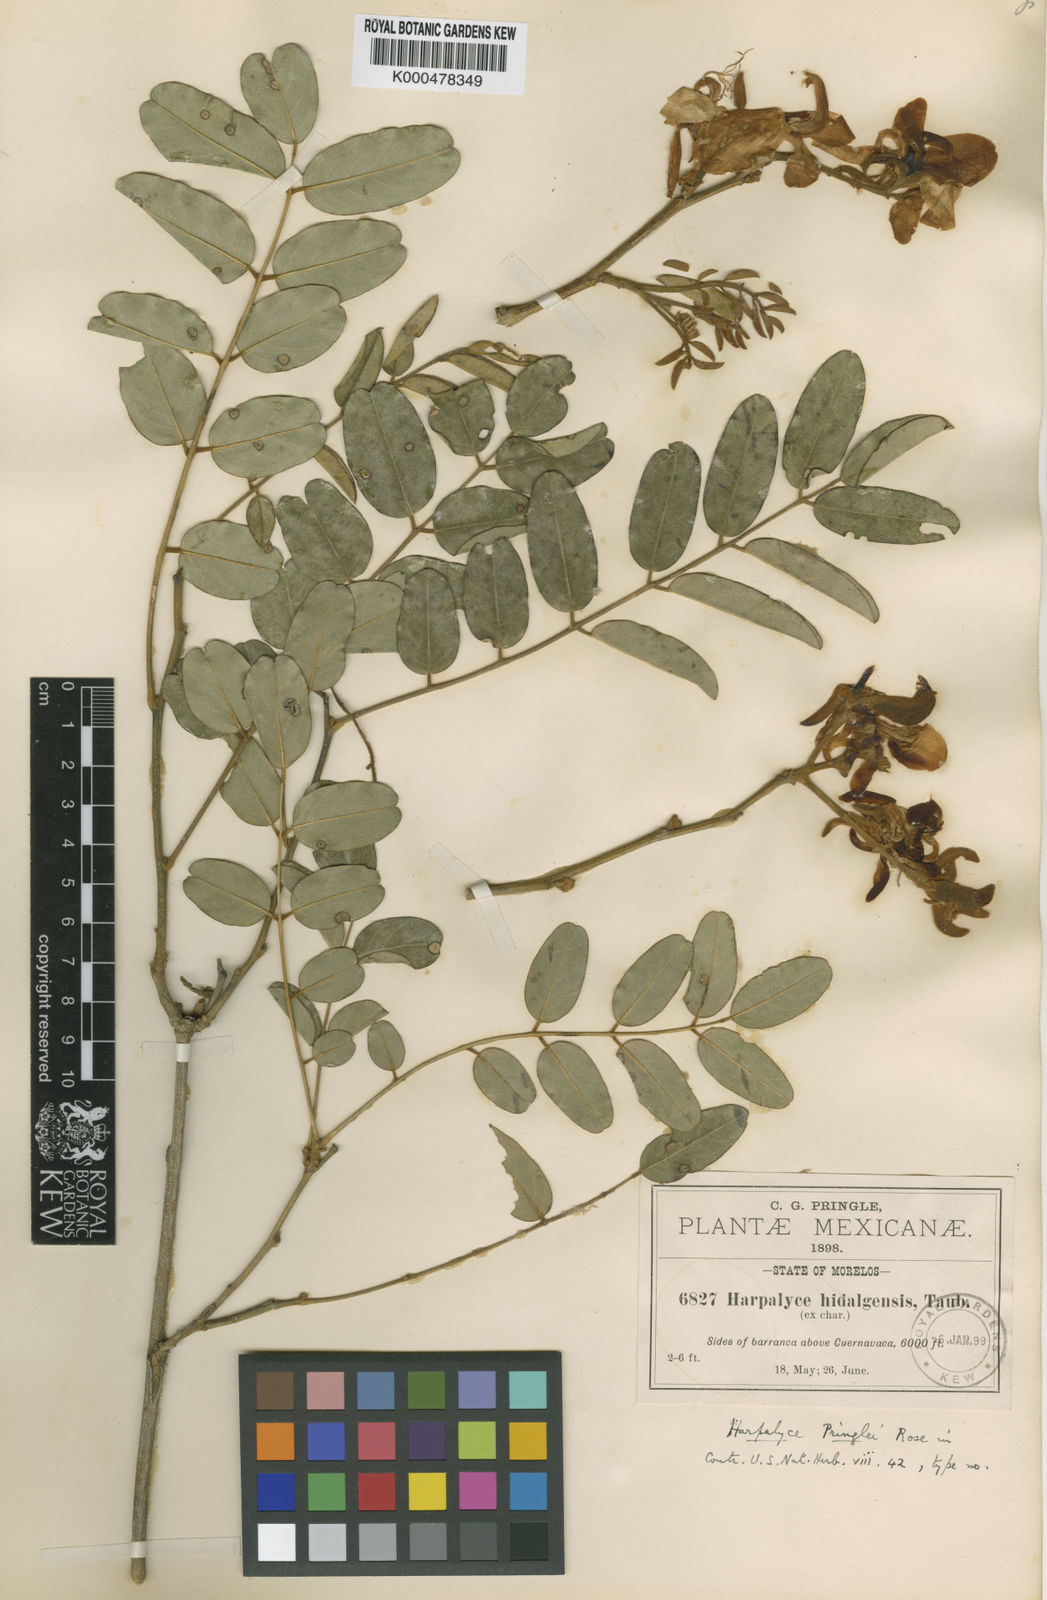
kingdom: Plantae
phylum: Tracheophyta
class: Magnoliopsida
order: Fabales
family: Fabaceae
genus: Harpalyce
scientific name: Harpalyce pringlei
